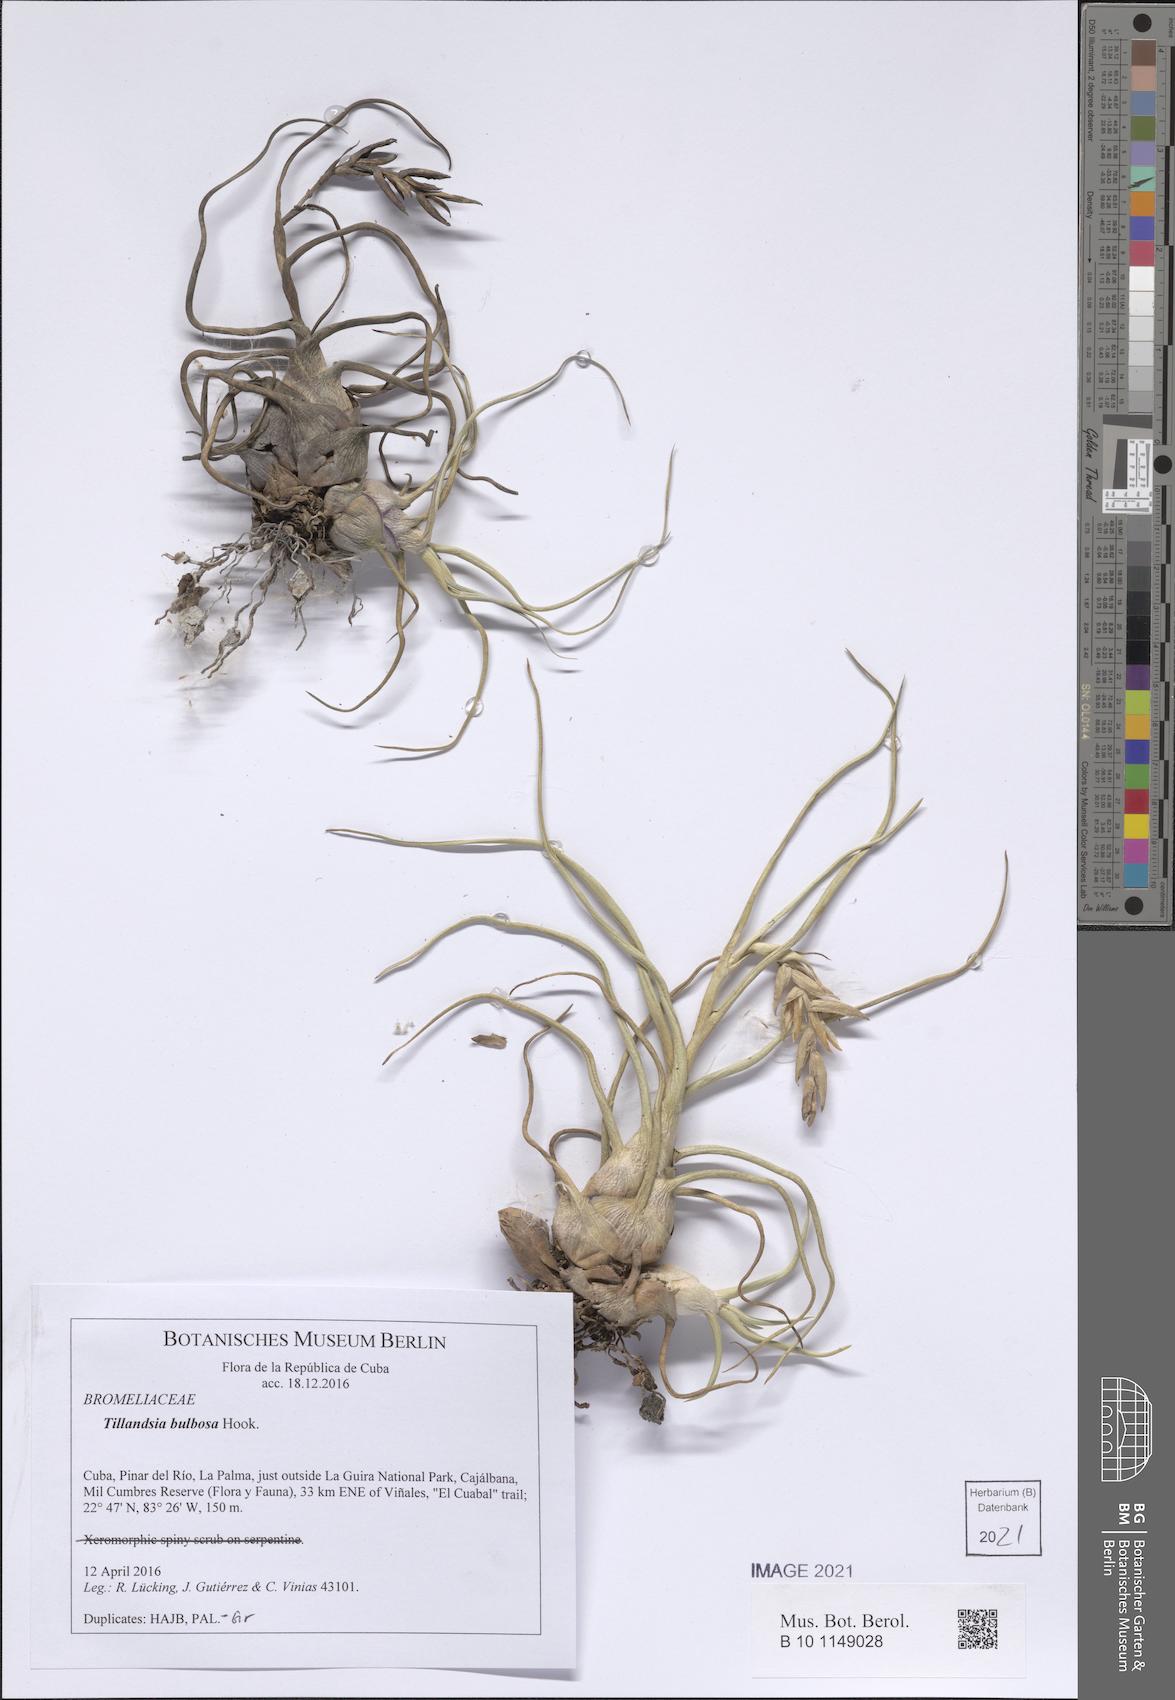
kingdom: Plantae
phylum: Tracheophyta
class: Liliopsida
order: Poales
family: Bromeliaceae
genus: Tillandsia
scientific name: Tillandsia bulbosa
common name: Bulbous airplant
